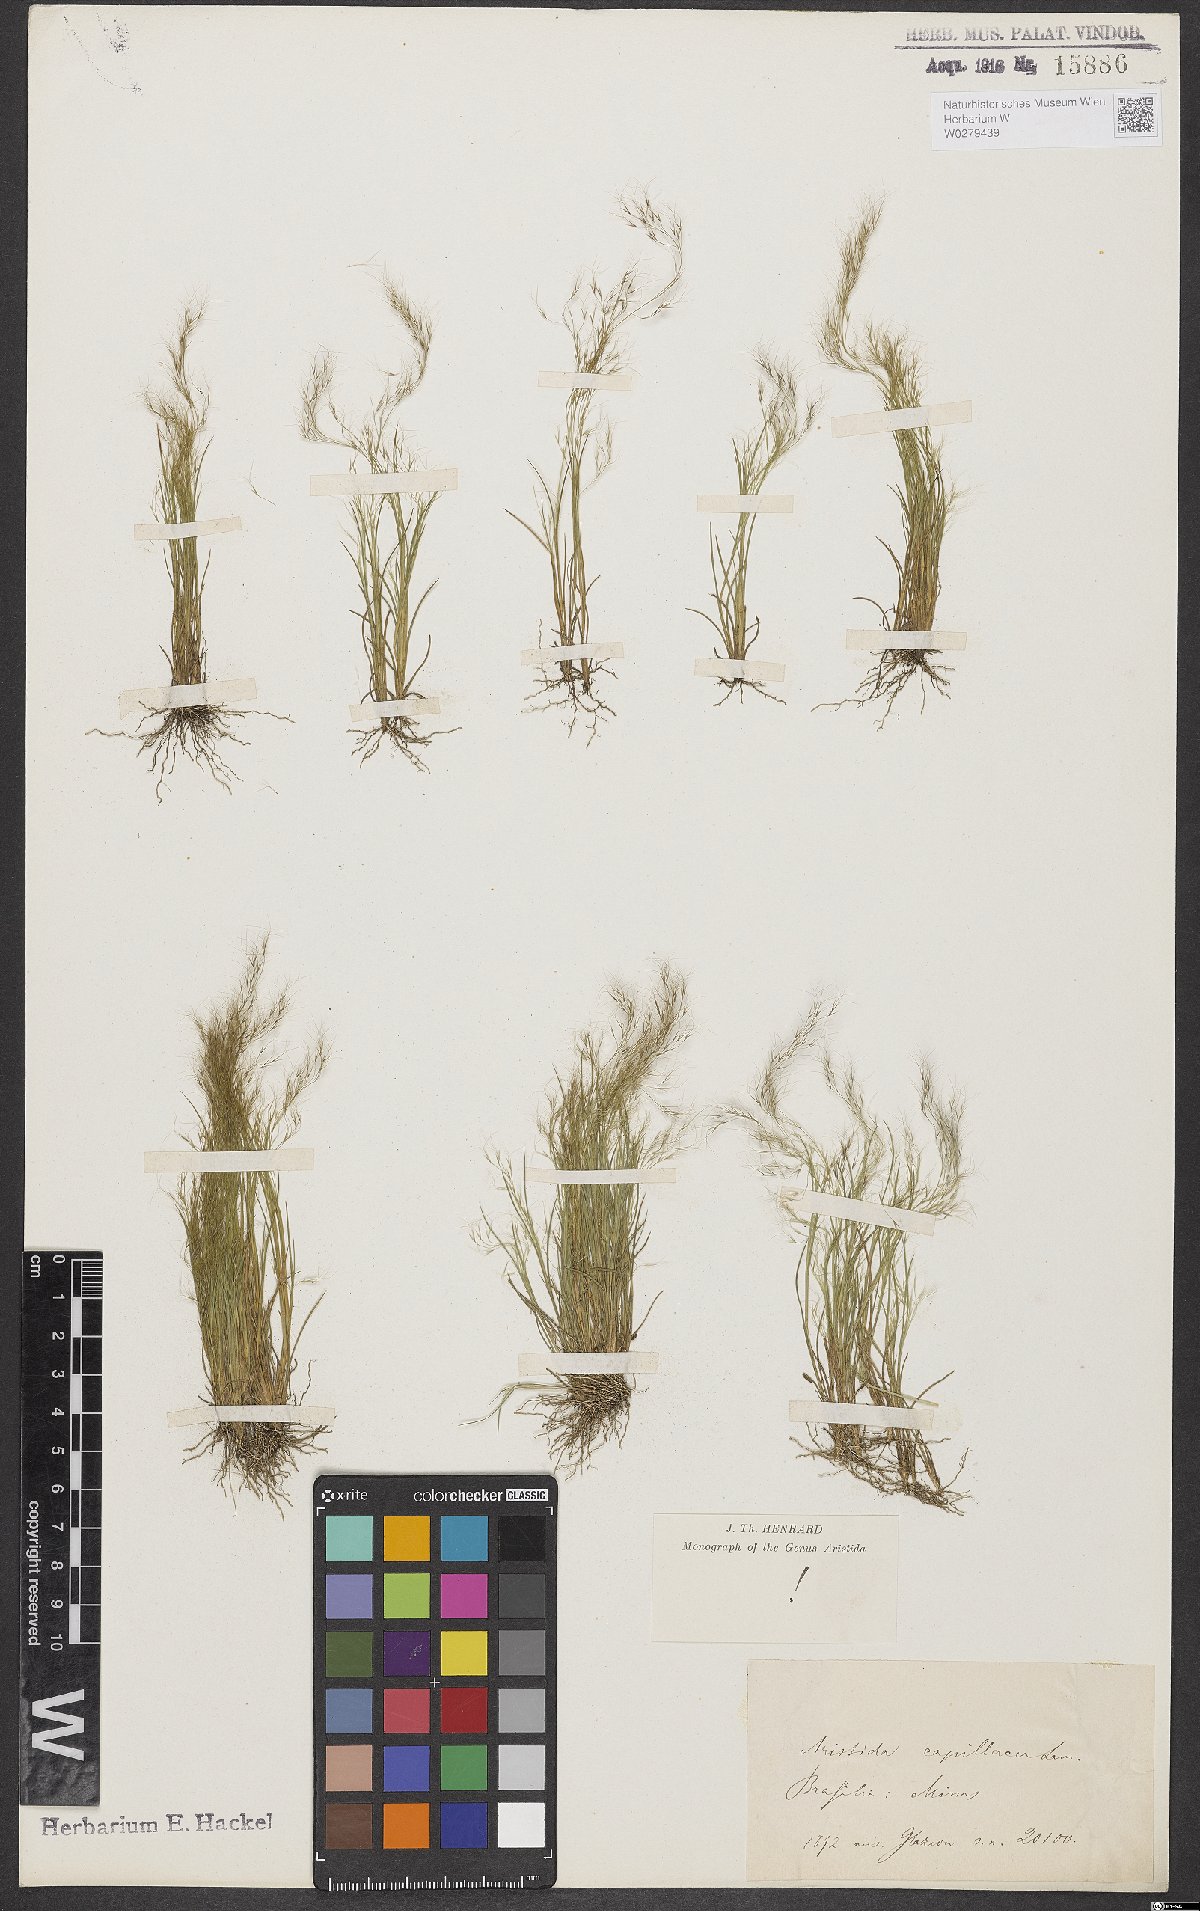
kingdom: Plantae
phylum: Tracheophyta
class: Liliopsida
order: Poales
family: Poaceae
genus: Aristida
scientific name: Aristida capillacea
